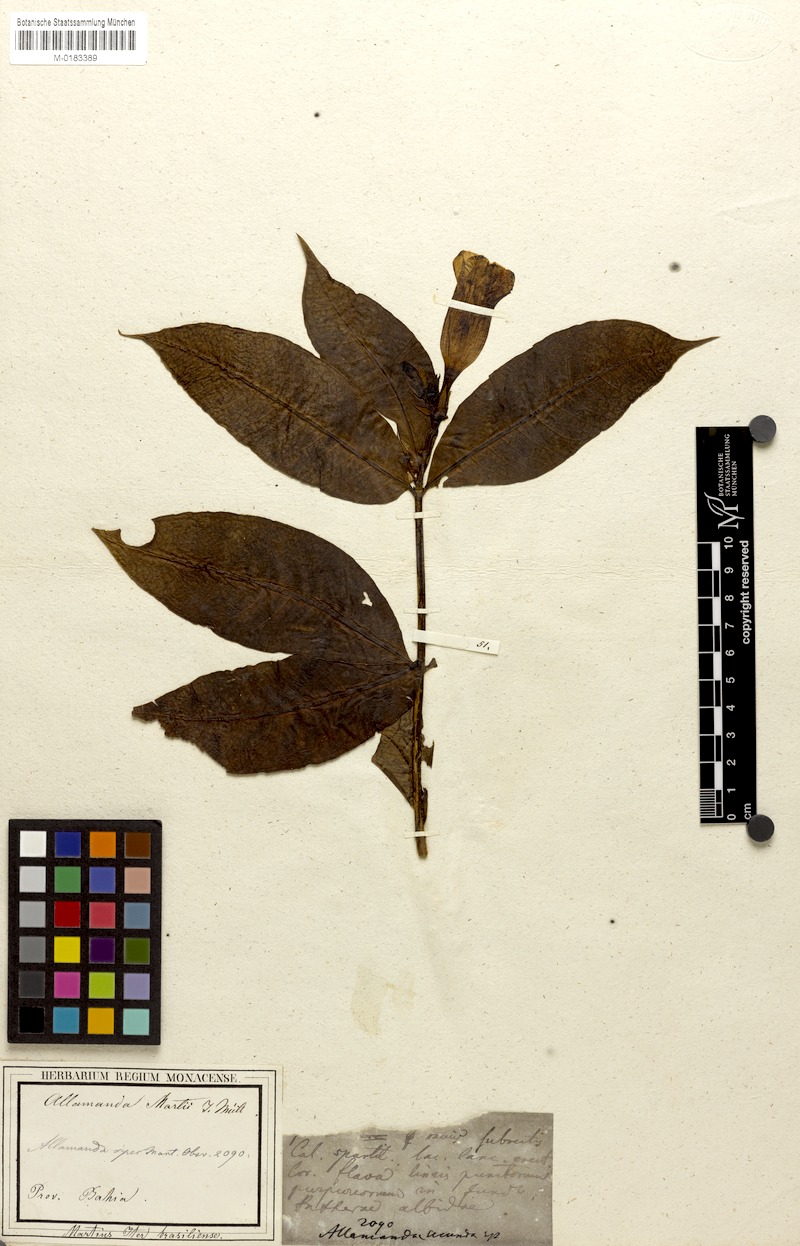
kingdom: Plantae
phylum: Tracheophyta
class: Magnoliopsida
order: Gentianales
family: Apocynaceae
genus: Allamanda
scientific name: Allamanda martii
